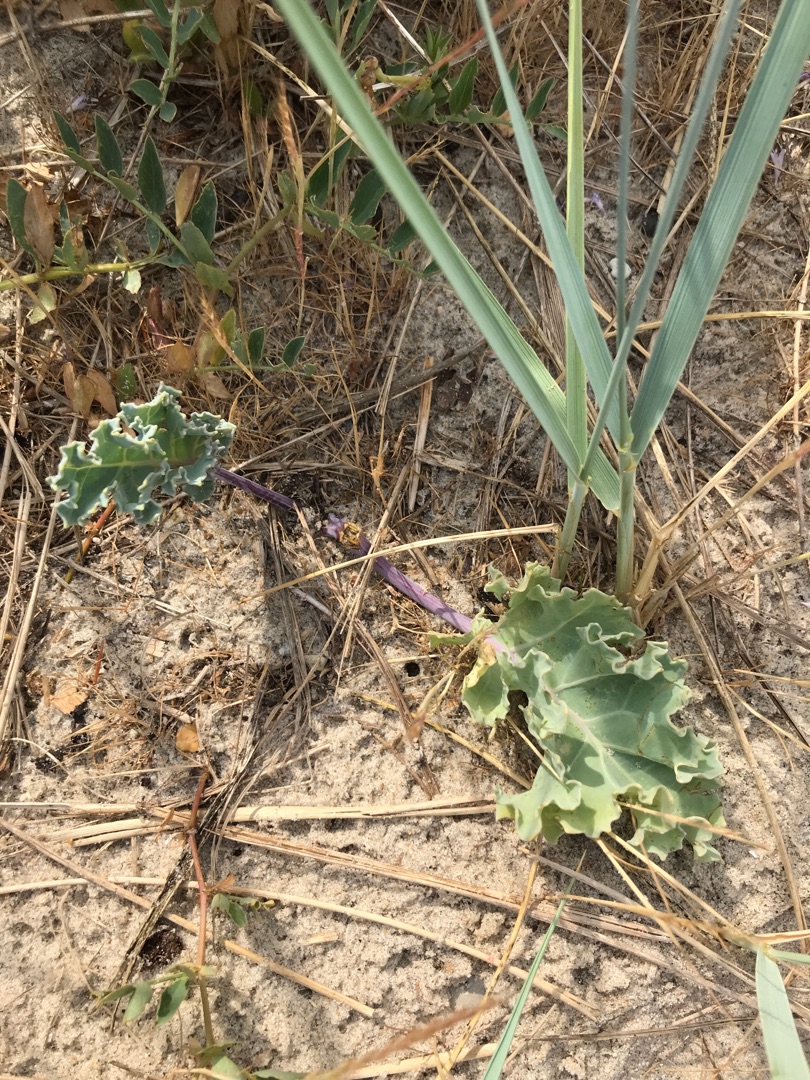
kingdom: Plantae
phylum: Tracheophyta
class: Magnoliopsida
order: Brassicales
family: Brassicaceae
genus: Crambe
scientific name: Crambe maritima
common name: Strandkål
